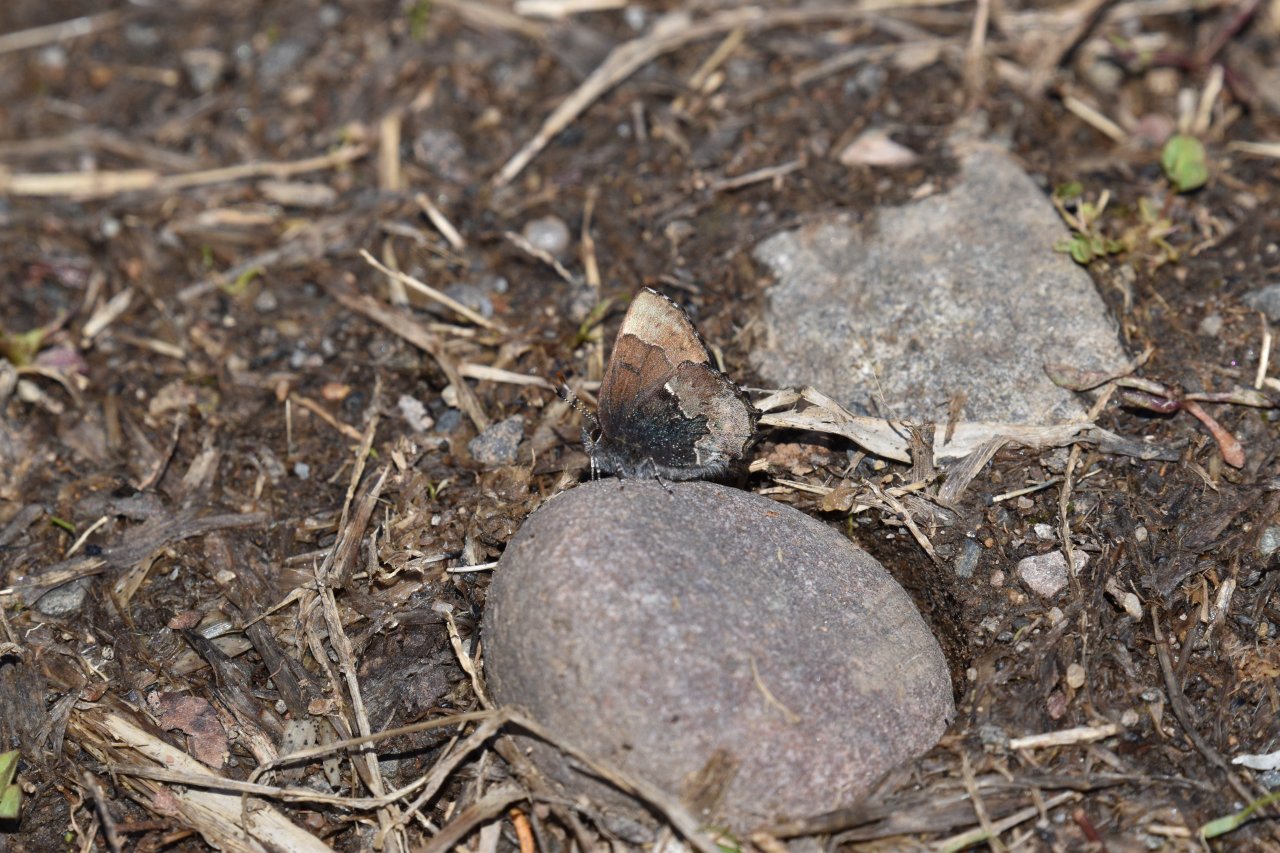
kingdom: Animalia
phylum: Arthropoda
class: Insecta
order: Lepidoptera
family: Lycaenidae
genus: Incisalia
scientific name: Incisalia henrici
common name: Henry's Elfin
